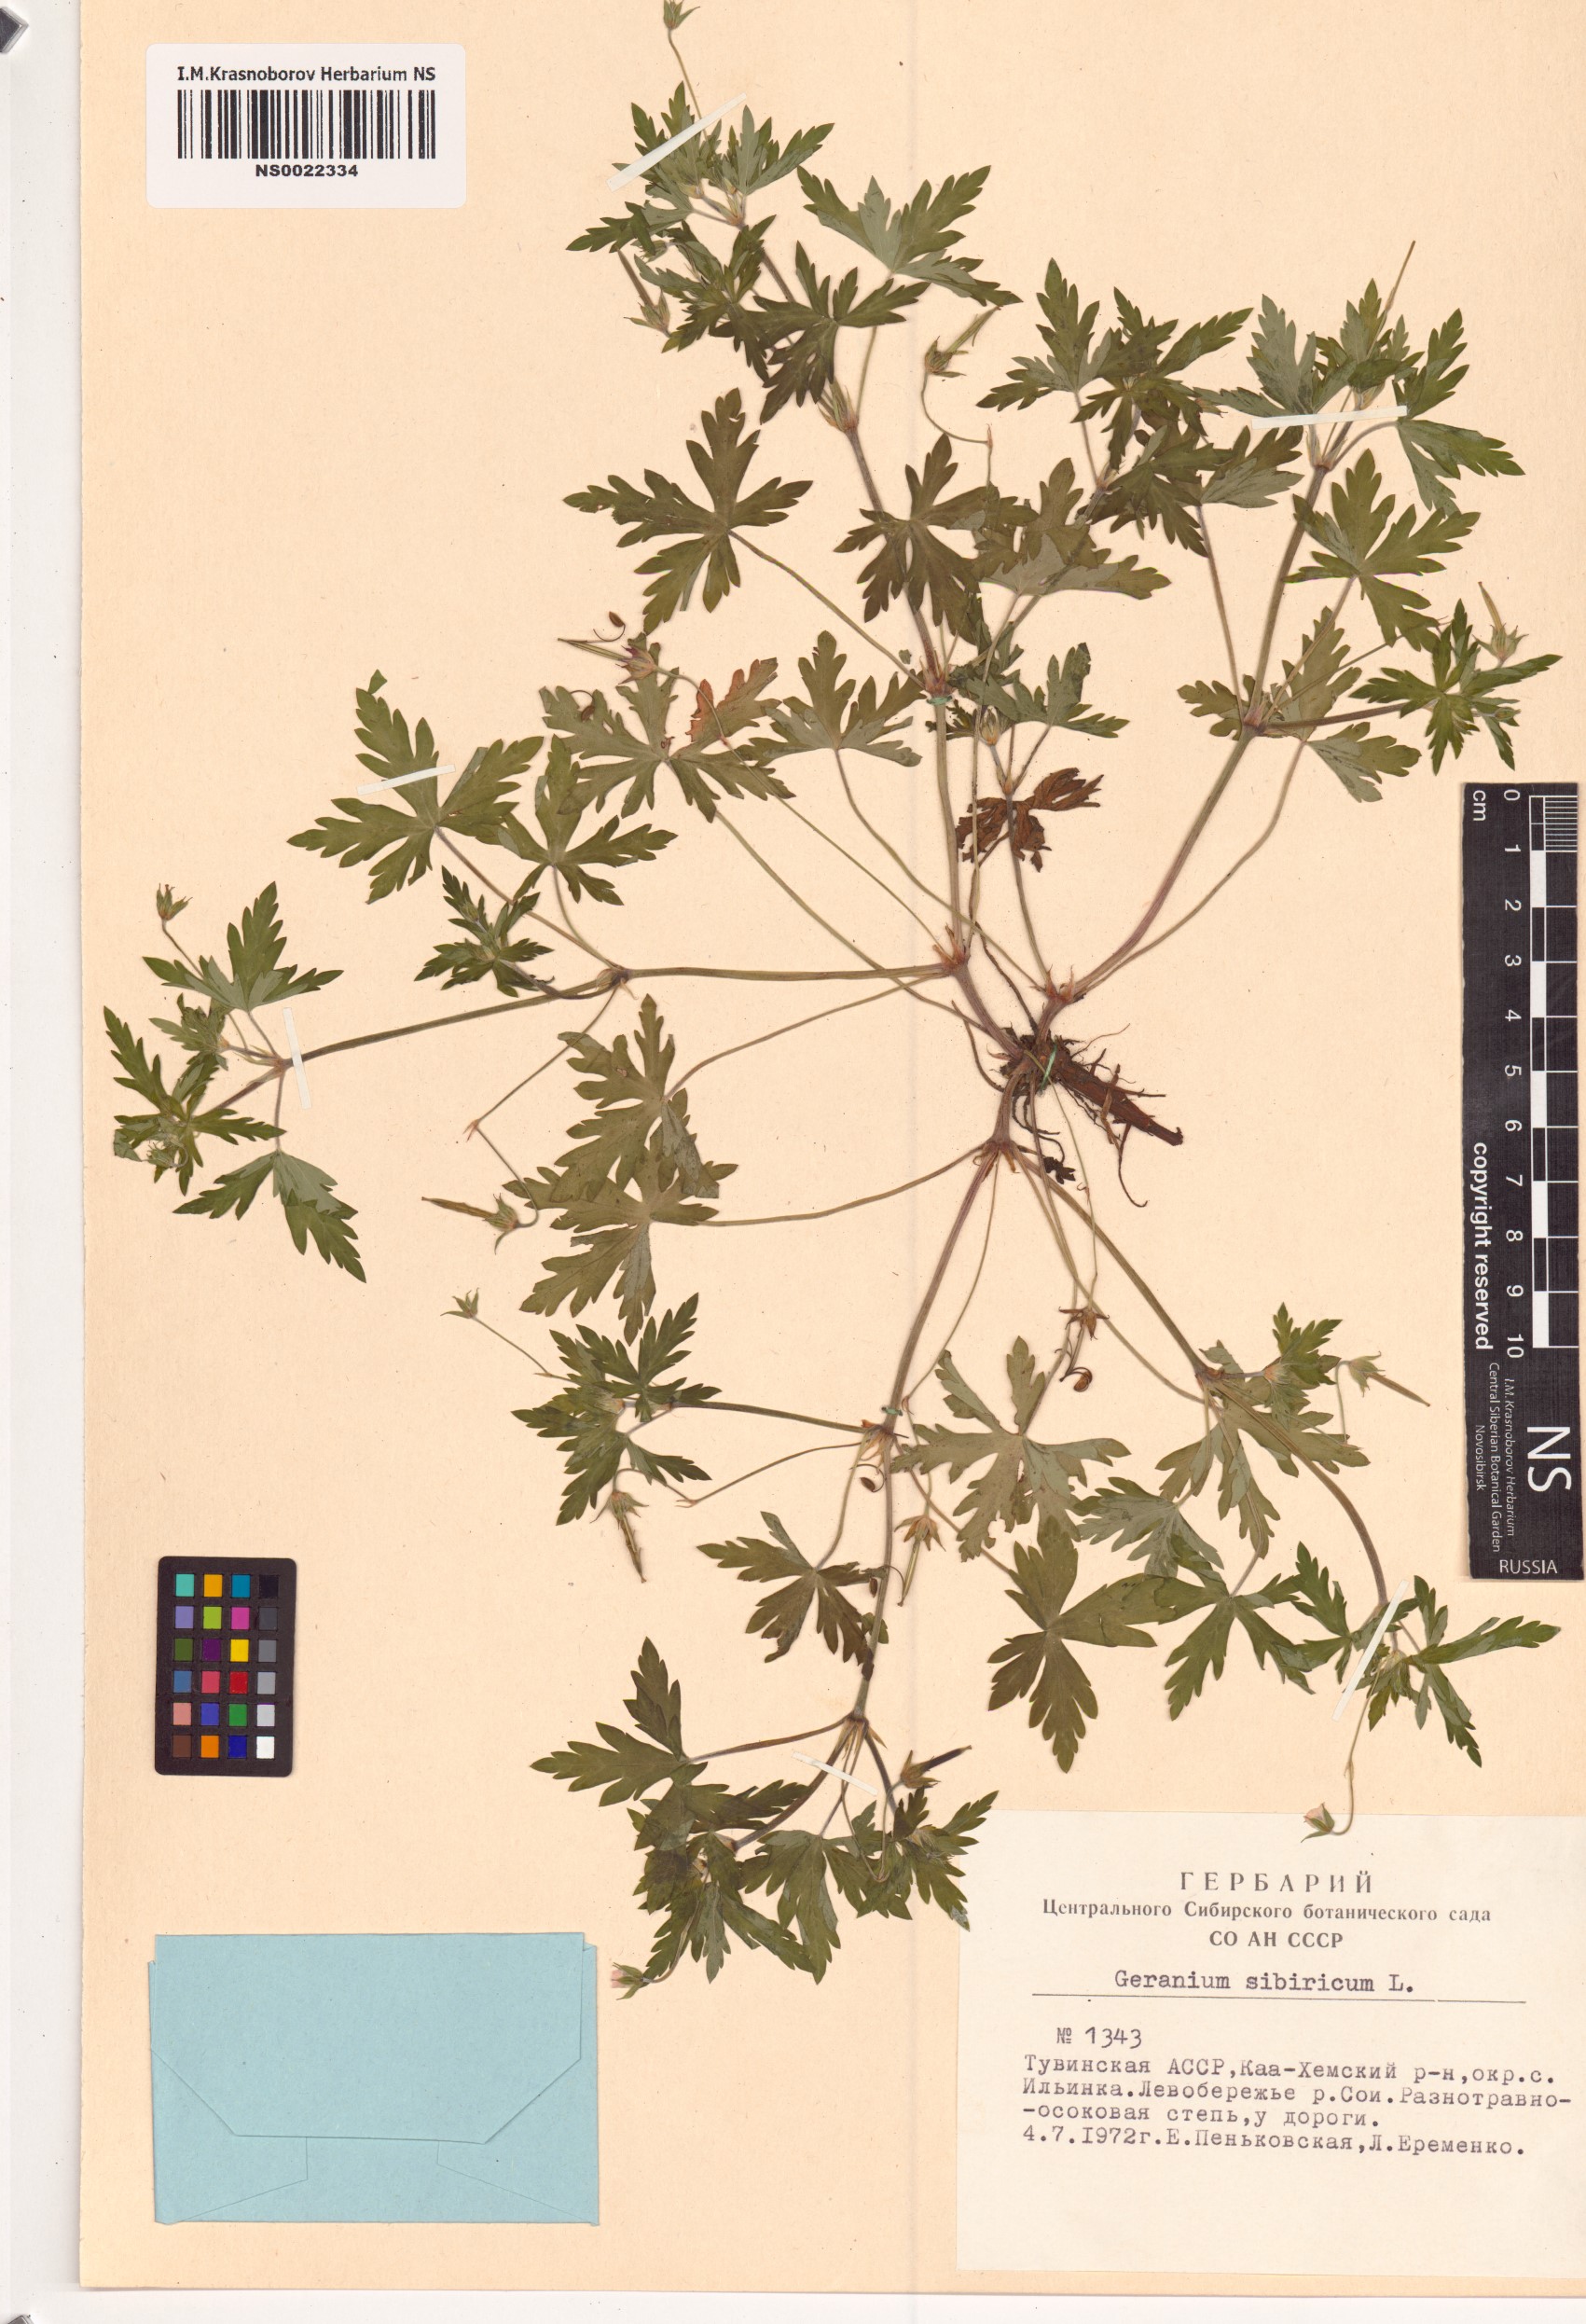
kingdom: Plantae
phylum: Tracheophyta
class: Magnoliopsida
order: Geraniales
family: Geraniaceae
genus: Geranium
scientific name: Geranium sibiricum
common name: Siberian crane's-bill
